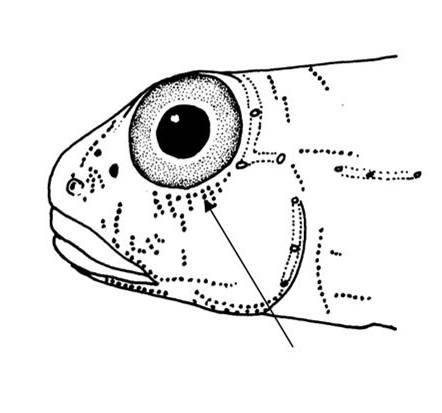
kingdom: Animalia
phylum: Chordata
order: Perciformes
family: Gobiidae
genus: Macrodontogobius
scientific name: Macrodontogobius wilburi
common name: Largetooth goby
